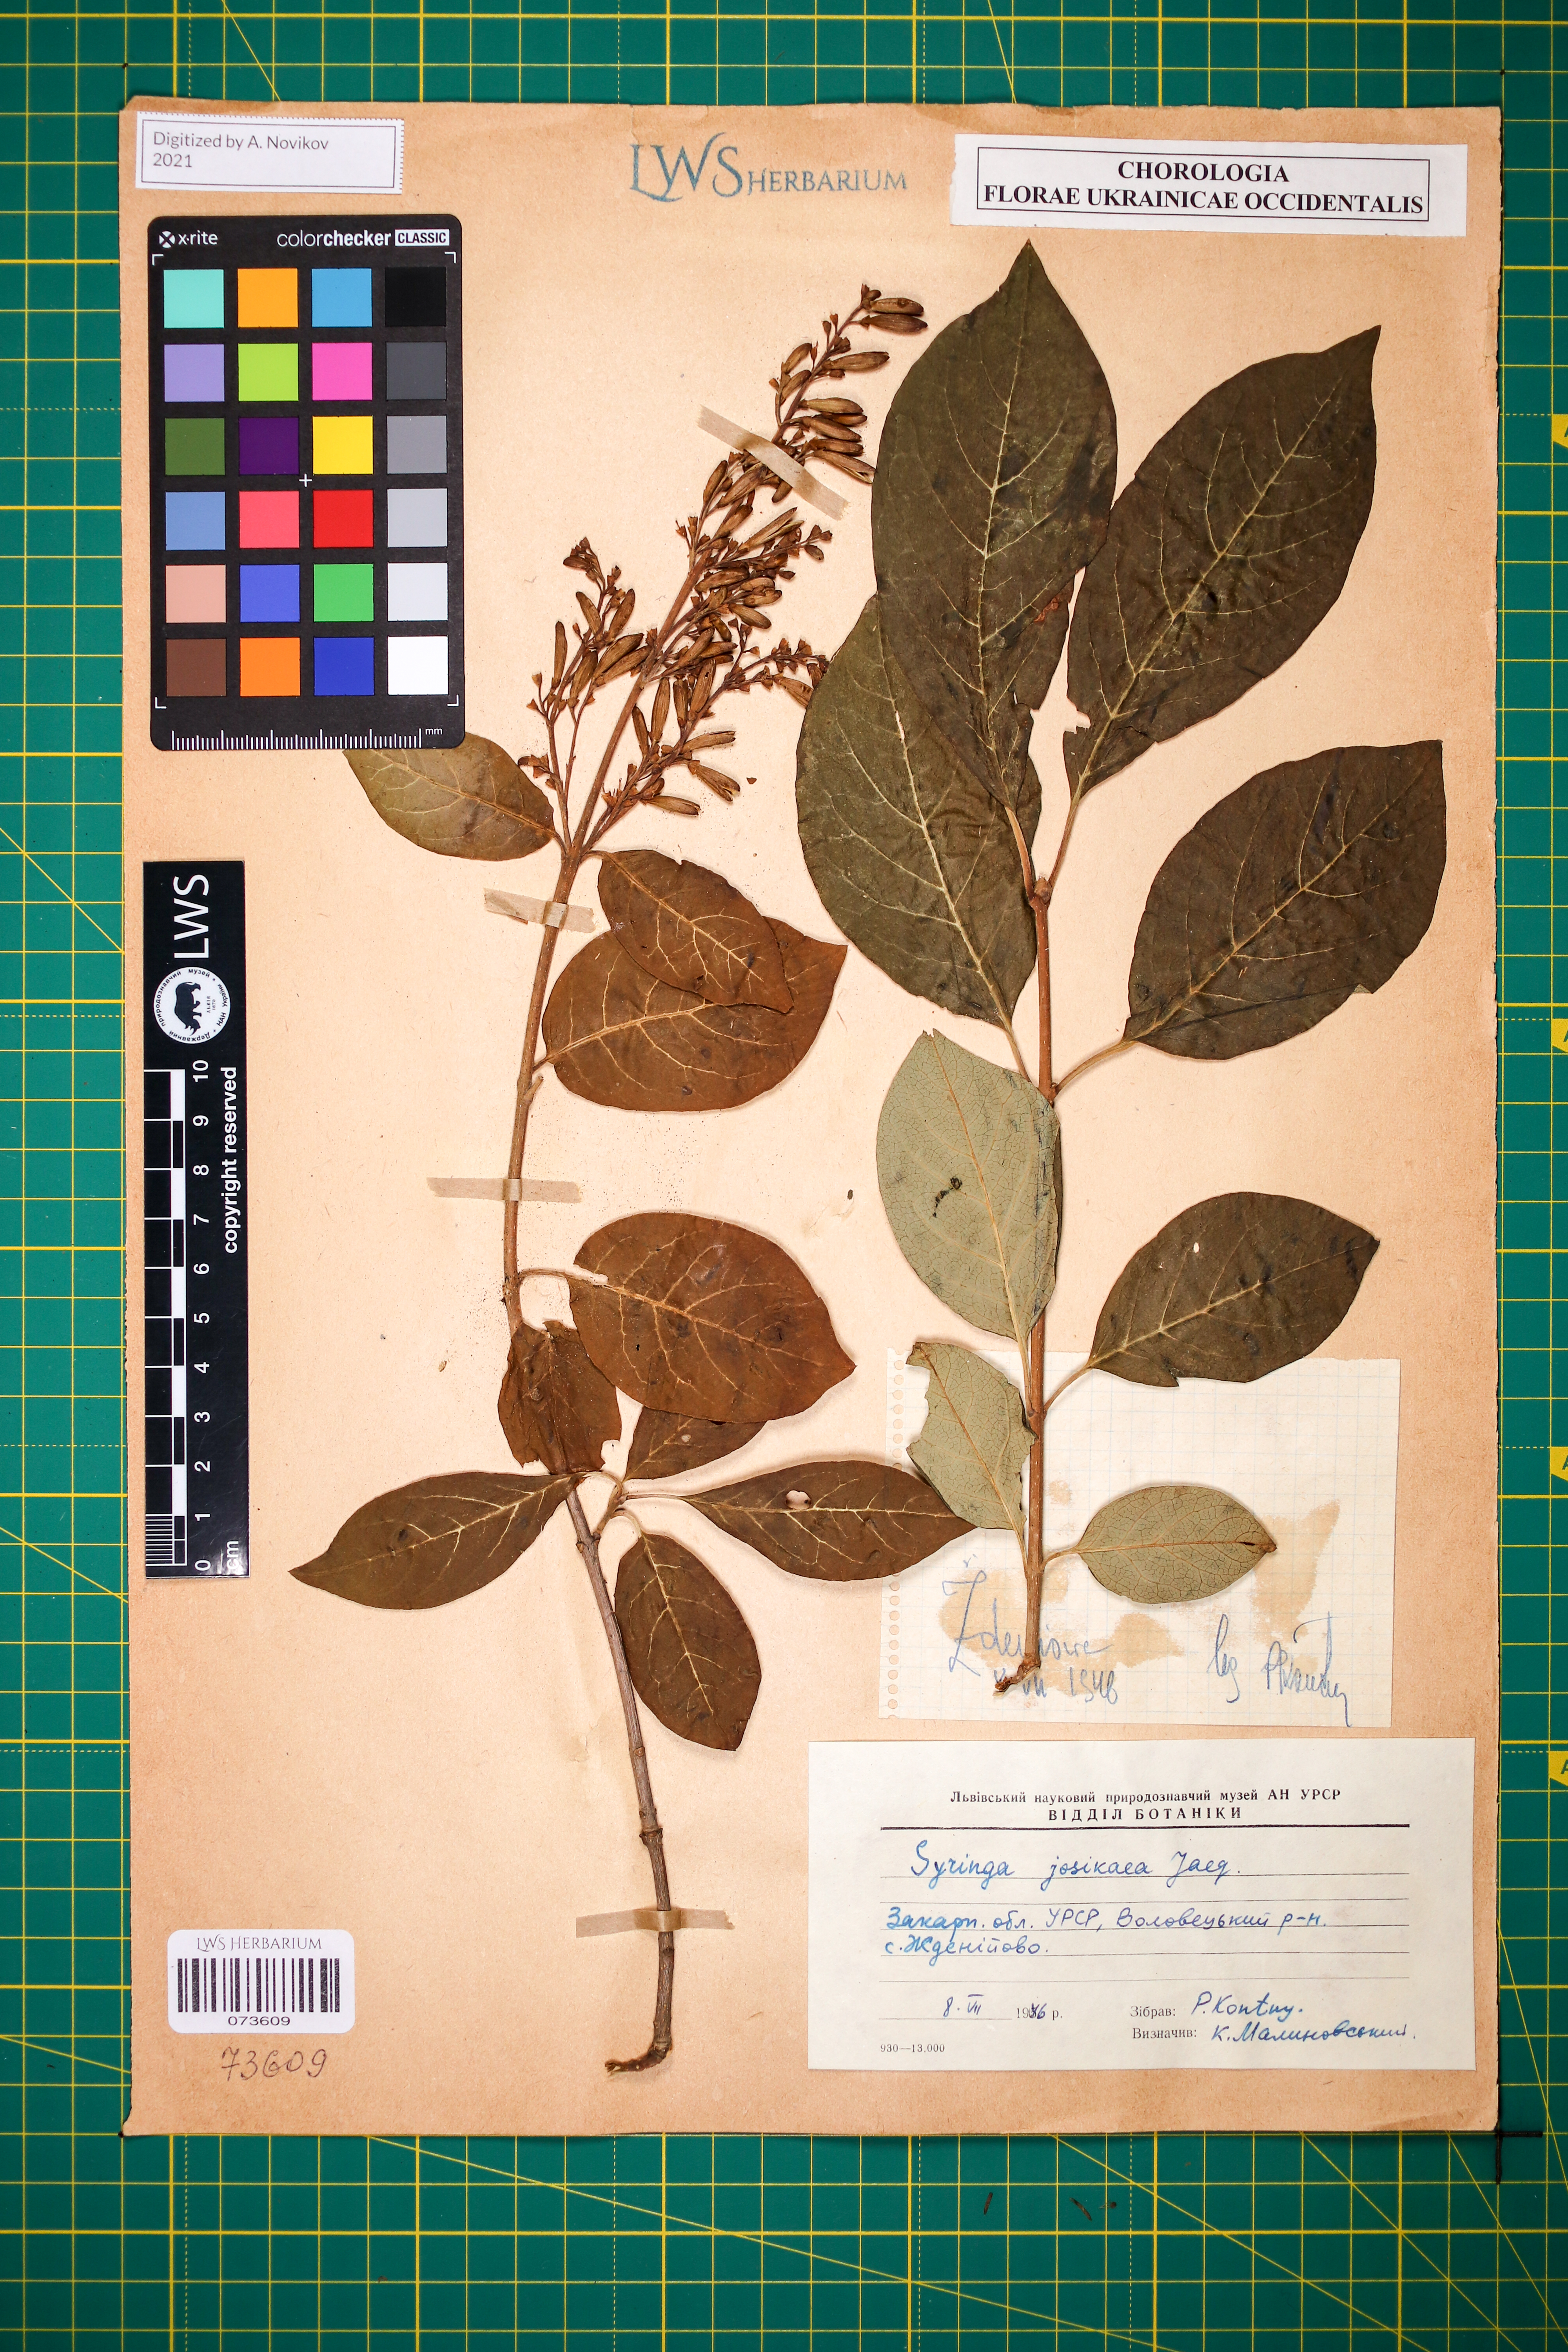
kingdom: Plantae
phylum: Tracheophyta
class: Magnoliopsida
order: Lamiales
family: Oleaceae
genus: Syringa
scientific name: Syringa josikaea
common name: Hungarian lilac
